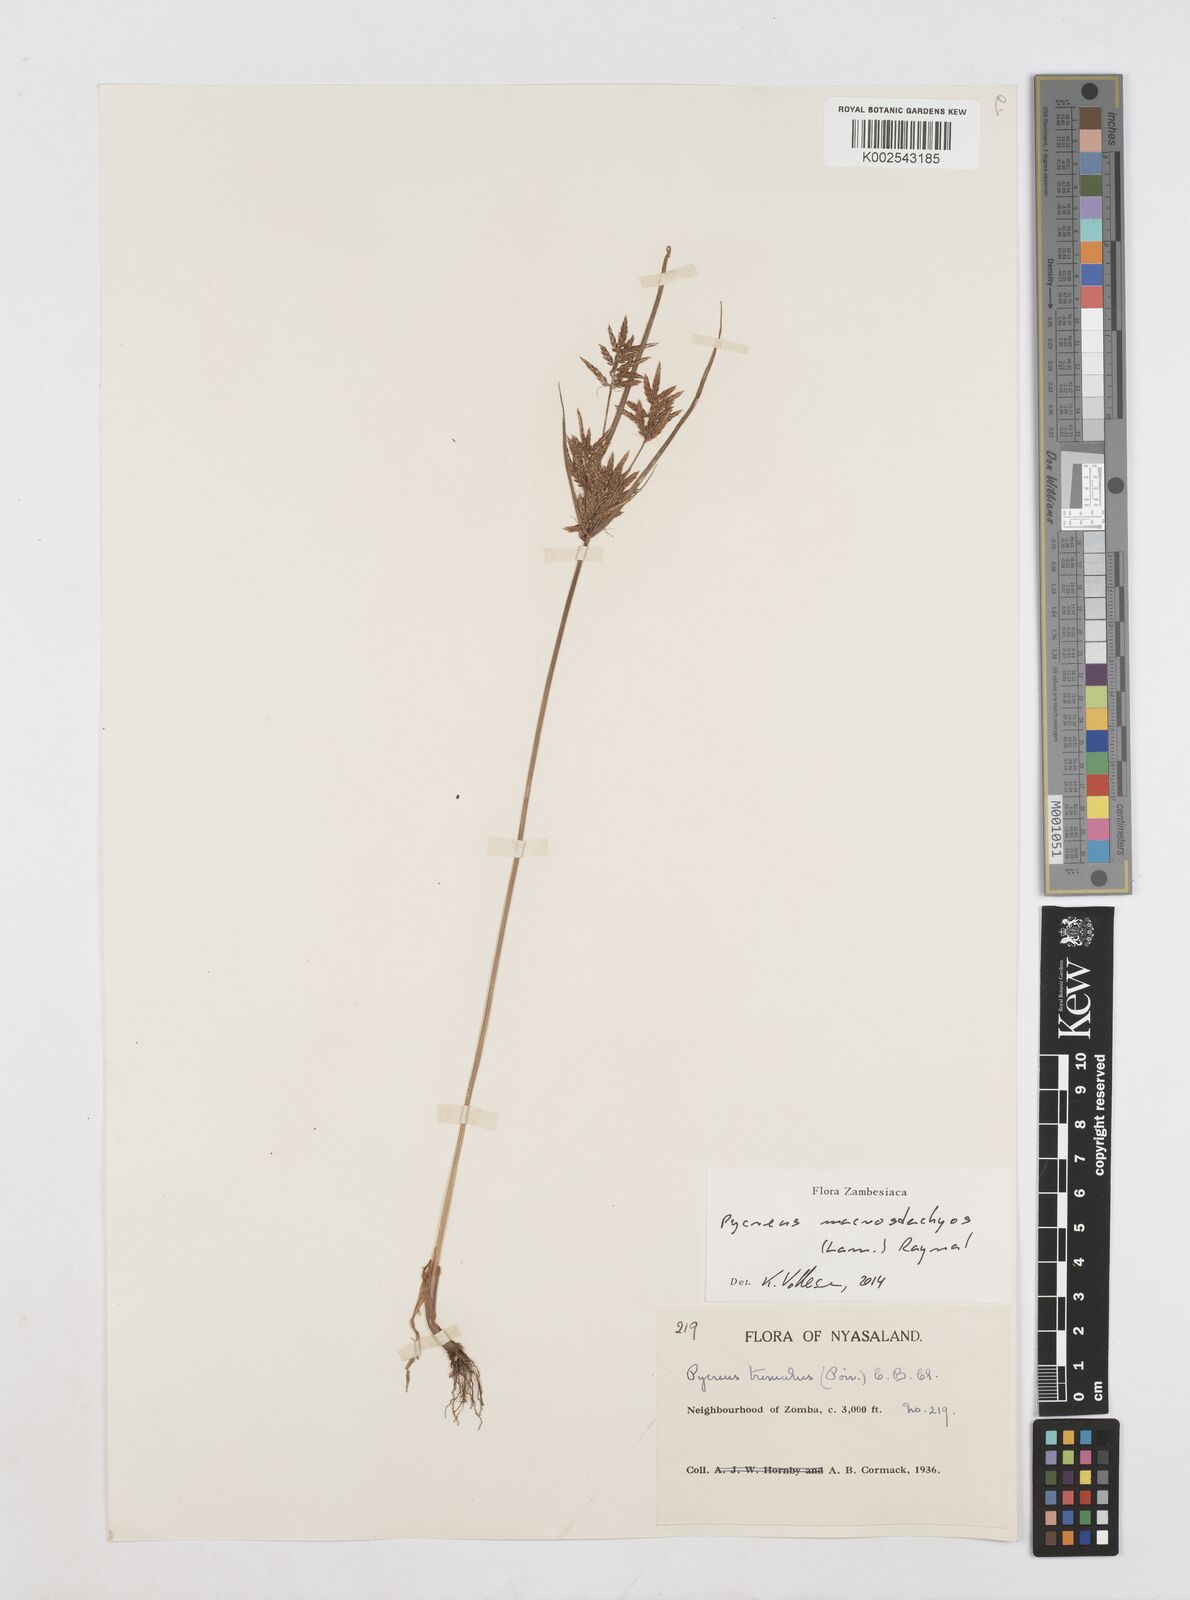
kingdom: Plantae
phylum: Tracheophyta
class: Liliopsida
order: Poales
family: Cyperaceae
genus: Cyperus
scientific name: Cyperus macrostachyos
